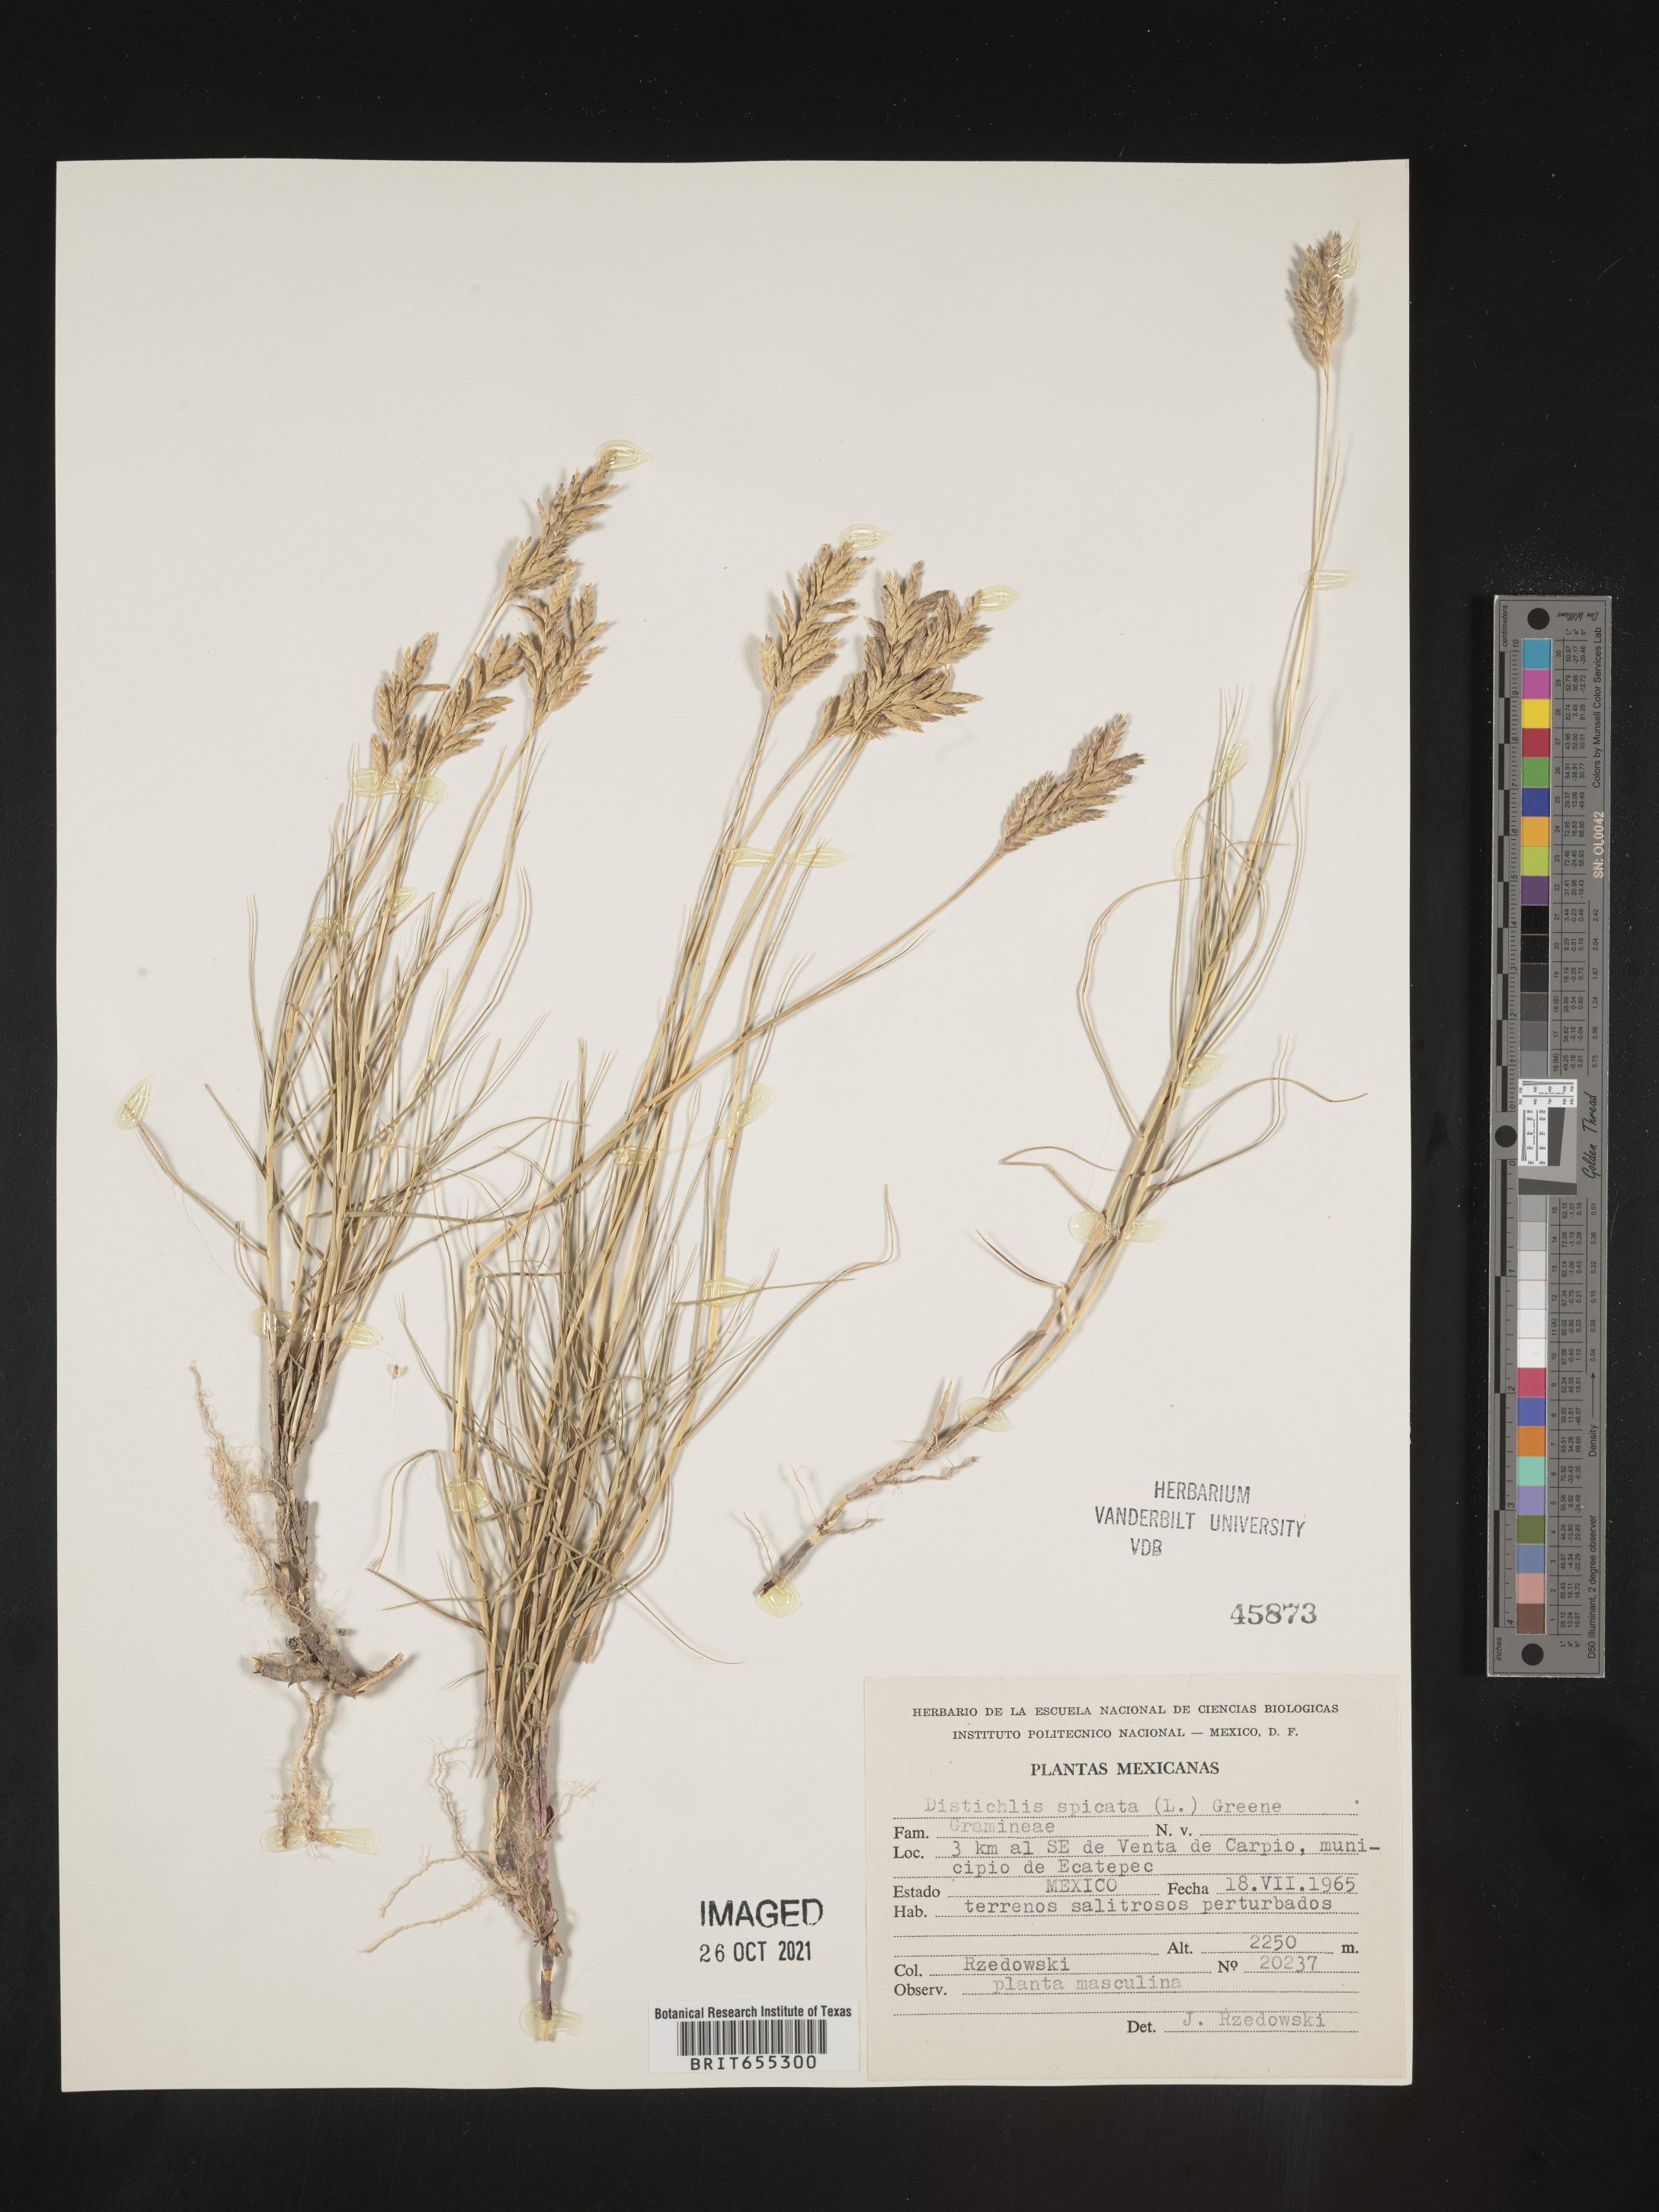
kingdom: Plantae
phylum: Tracheophyta
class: Liliopsida
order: Poales
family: Poaceae
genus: Distichlis
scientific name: Distichlis
